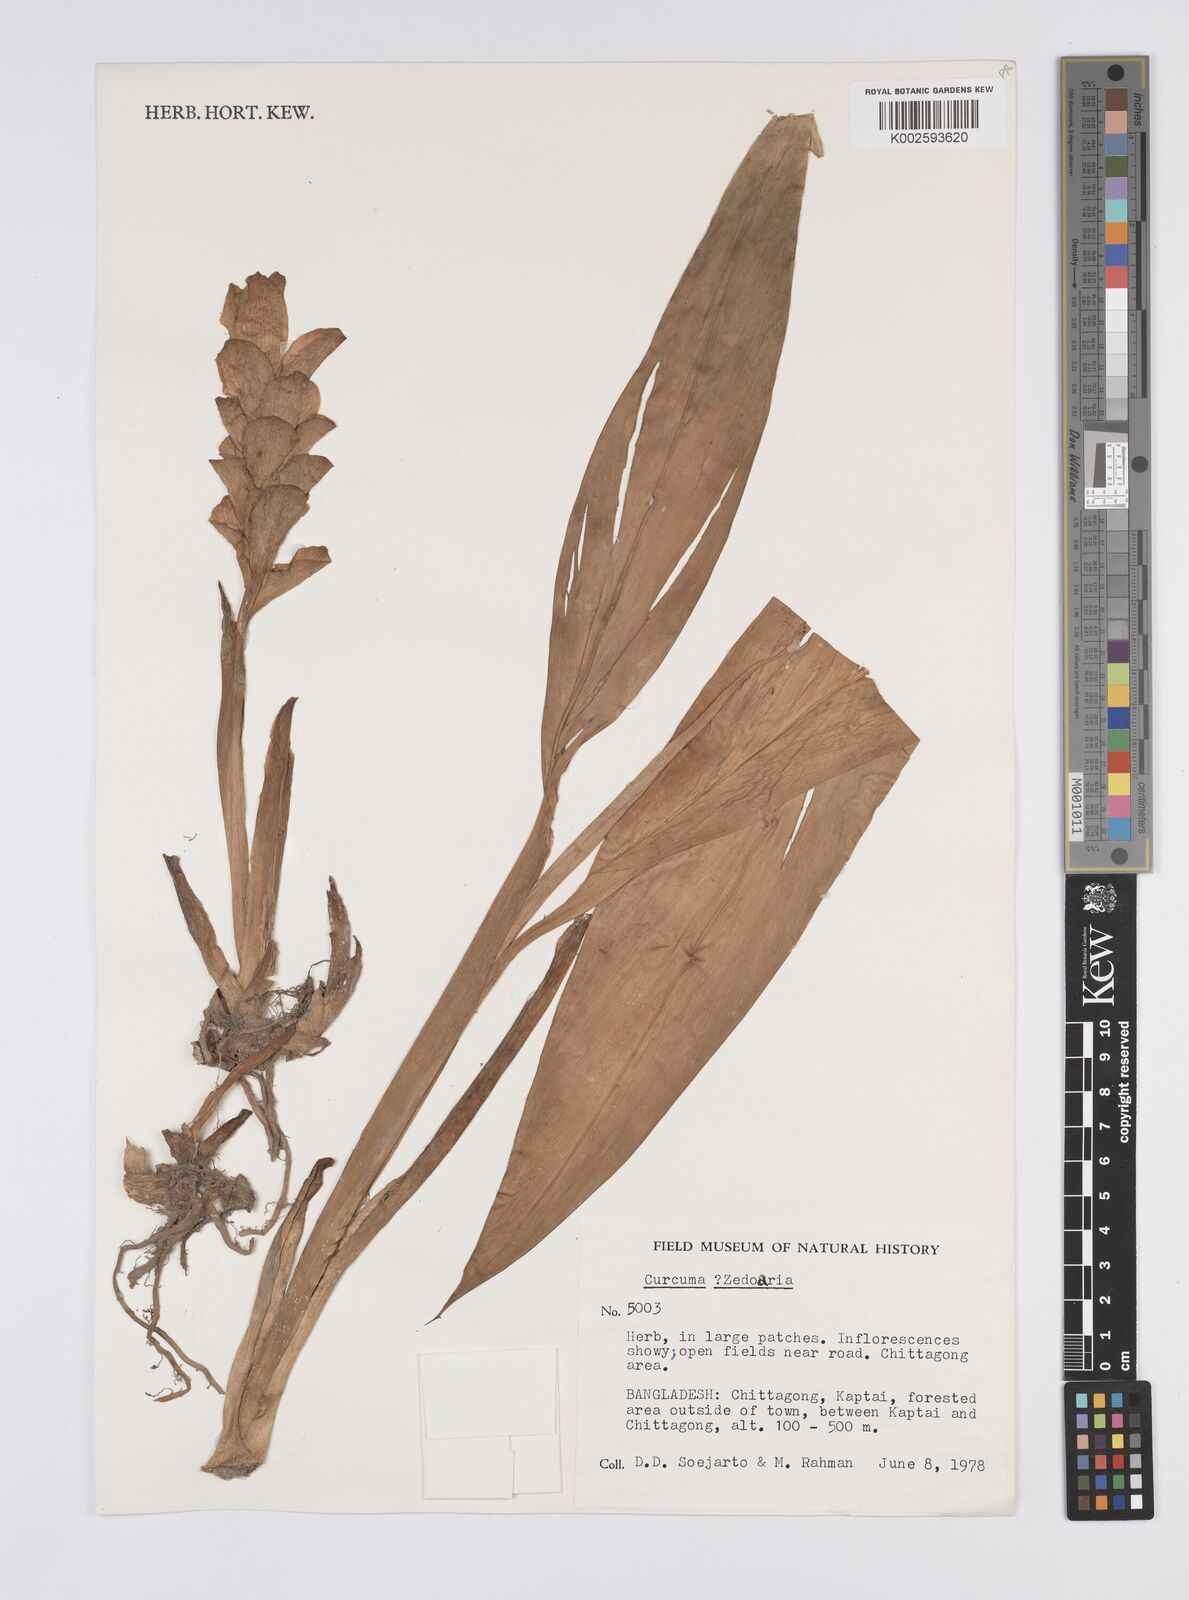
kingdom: Plantae
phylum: Tracheophyta
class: Liliopsida
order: Zingiberales
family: Zingiberaceae
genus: Curcuma
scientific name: Curcuma
